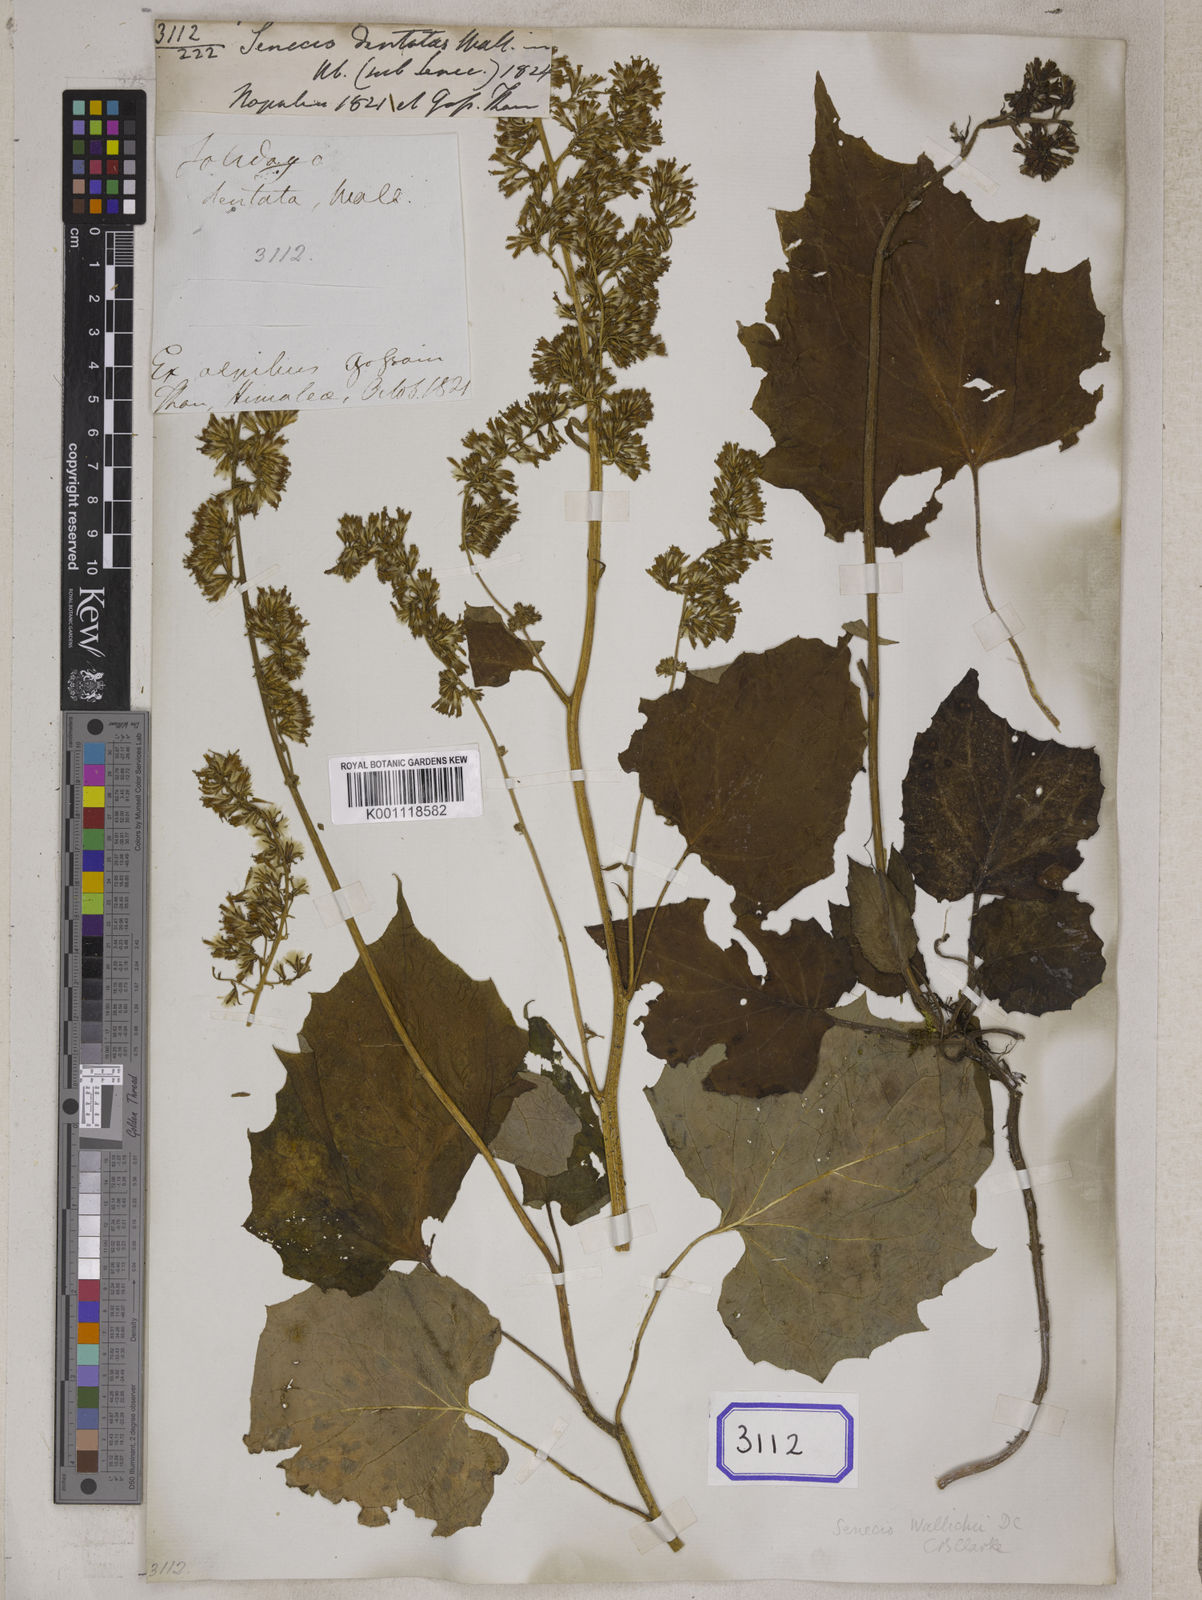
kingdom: Plantae
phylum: Tracheophyta
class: Magnoliopsida
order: Asterales
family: Asteraceae
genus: Synotis
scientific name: Synotis wallichii
